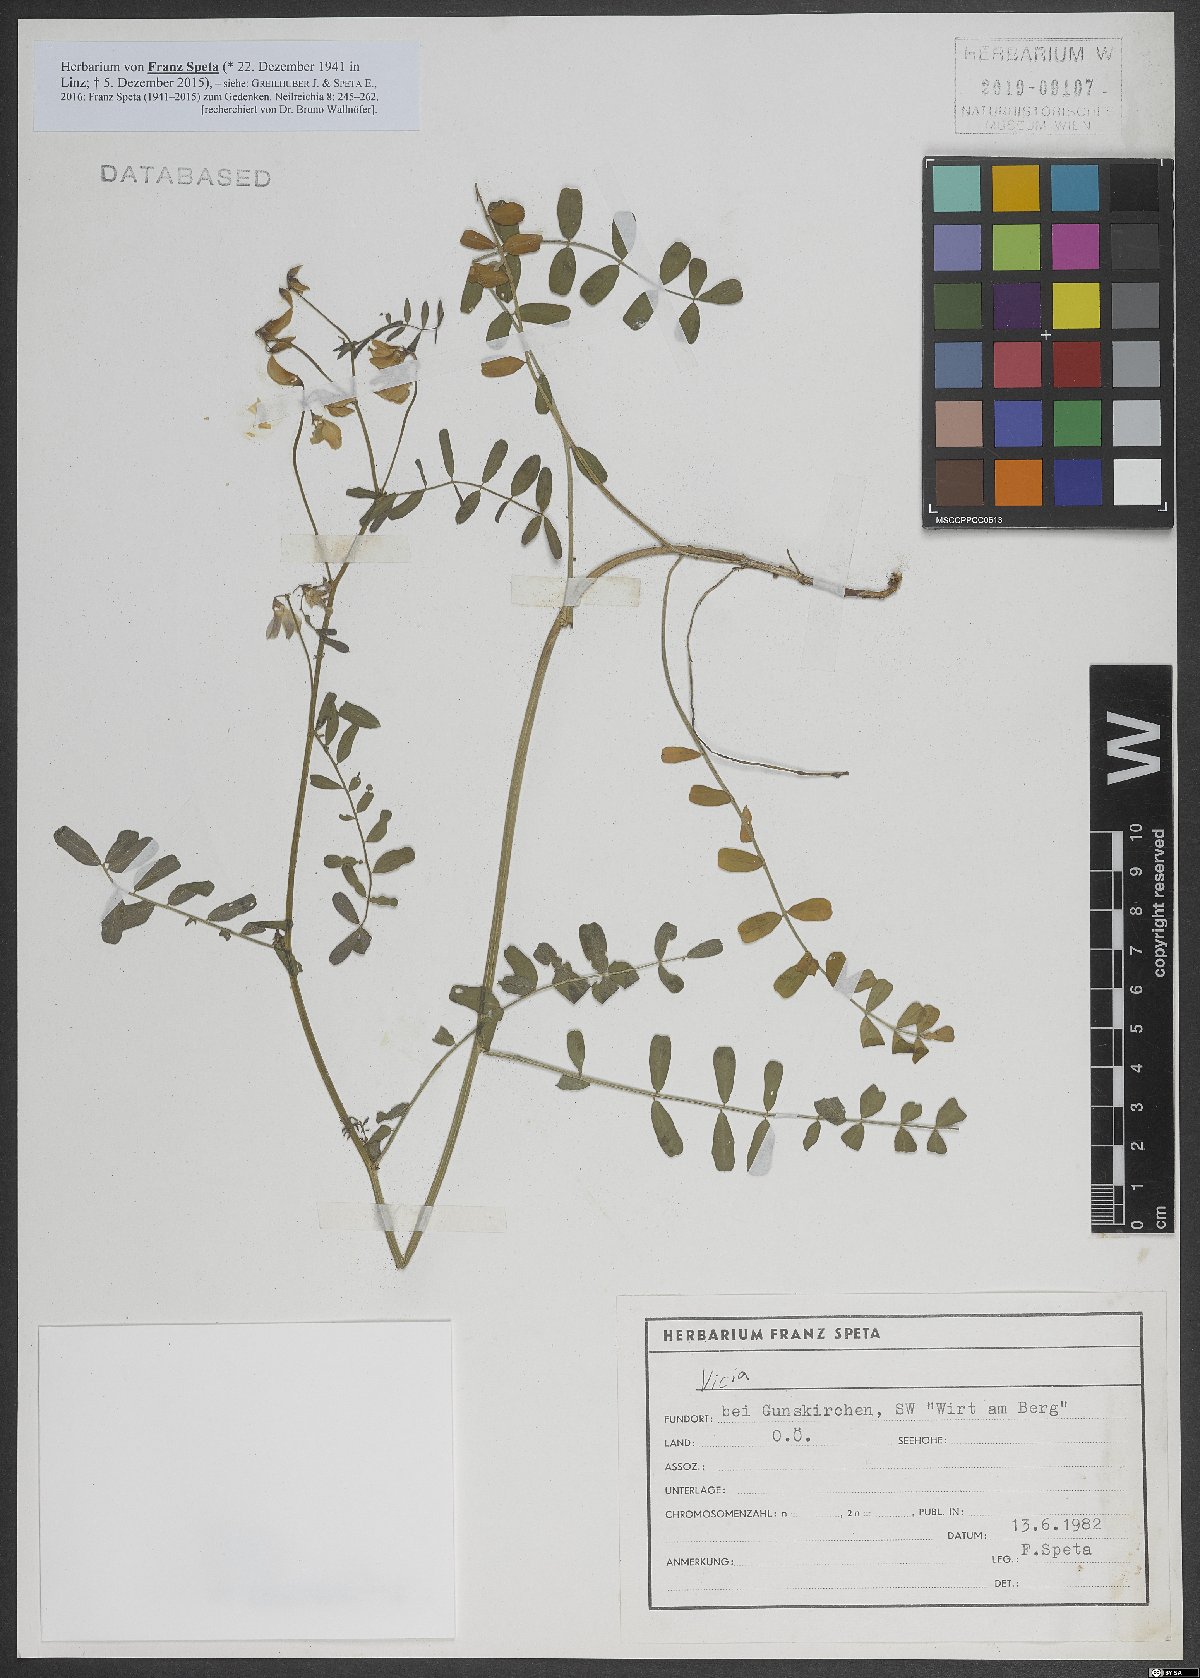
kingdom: Plantae
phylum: Tracheophyta
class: Magnoliopsida
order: Fabales
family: Fabaceae
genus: Vicia
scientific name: Vicia
